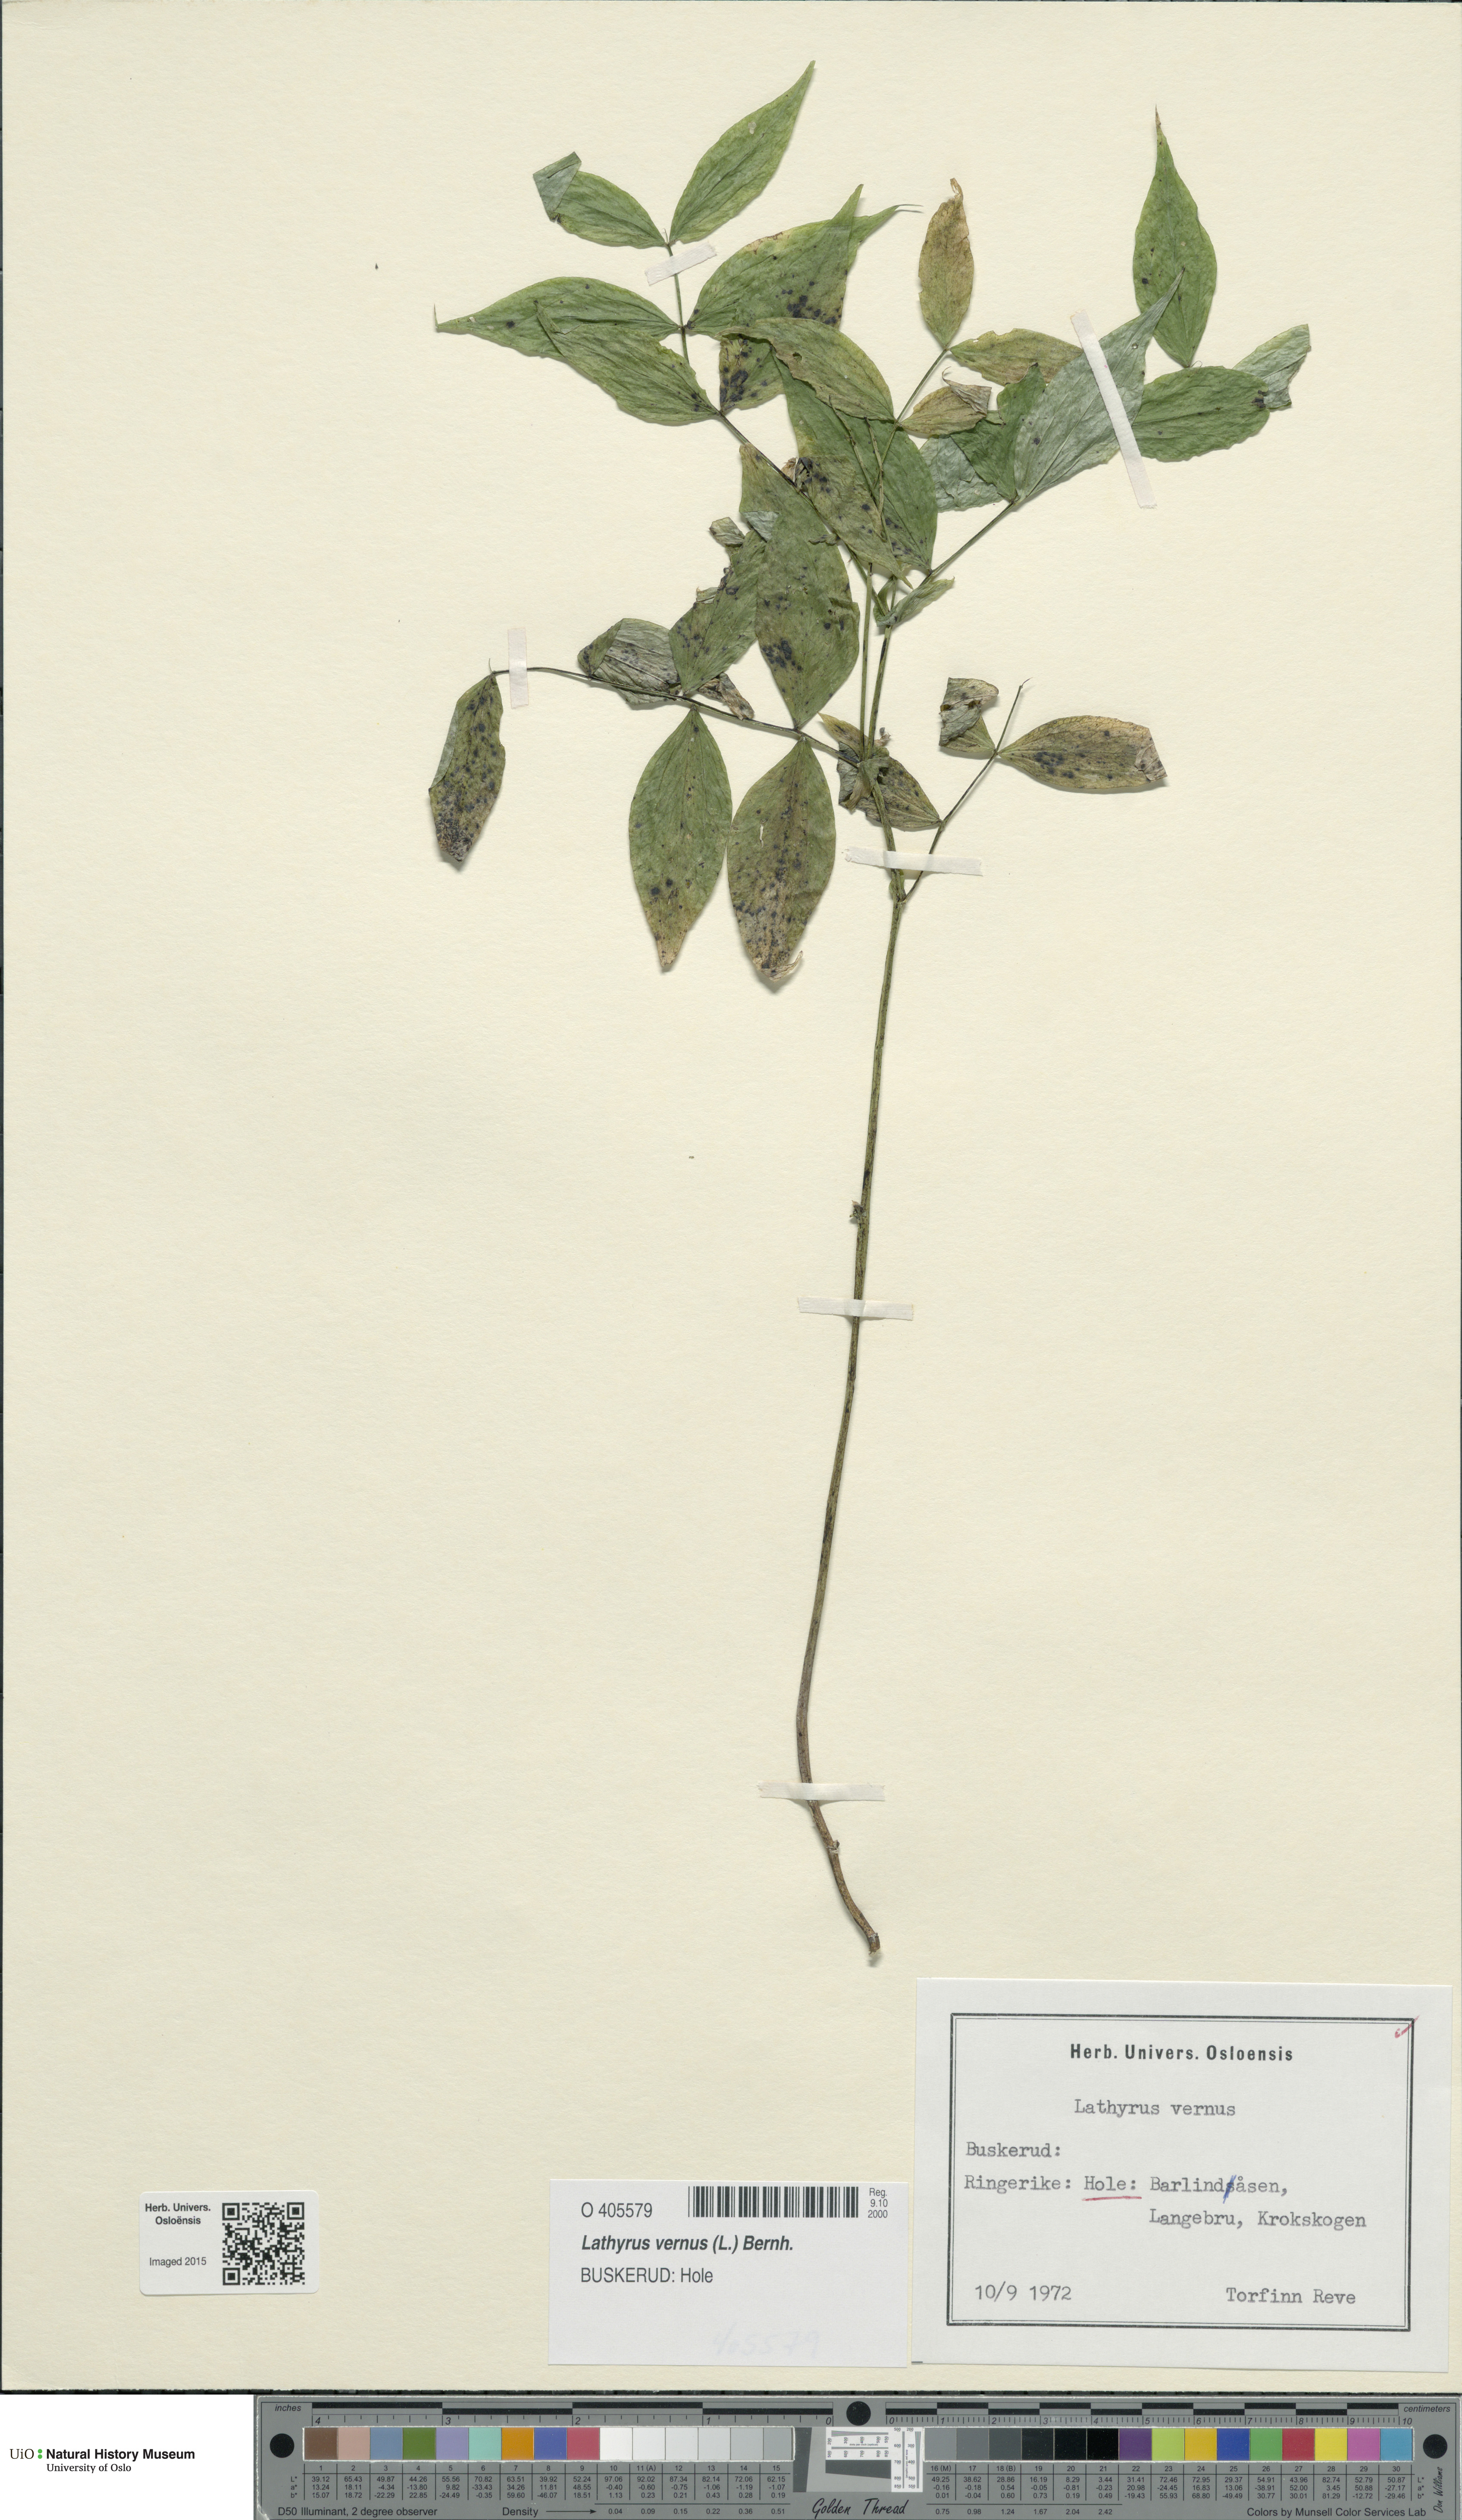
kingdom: Plantae
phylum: Tracheophyta
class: Magnoliopsida
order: Fabales
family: Fabaceae
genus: Lathyrus
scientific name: Lathyrus vernus
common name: Spring pea
